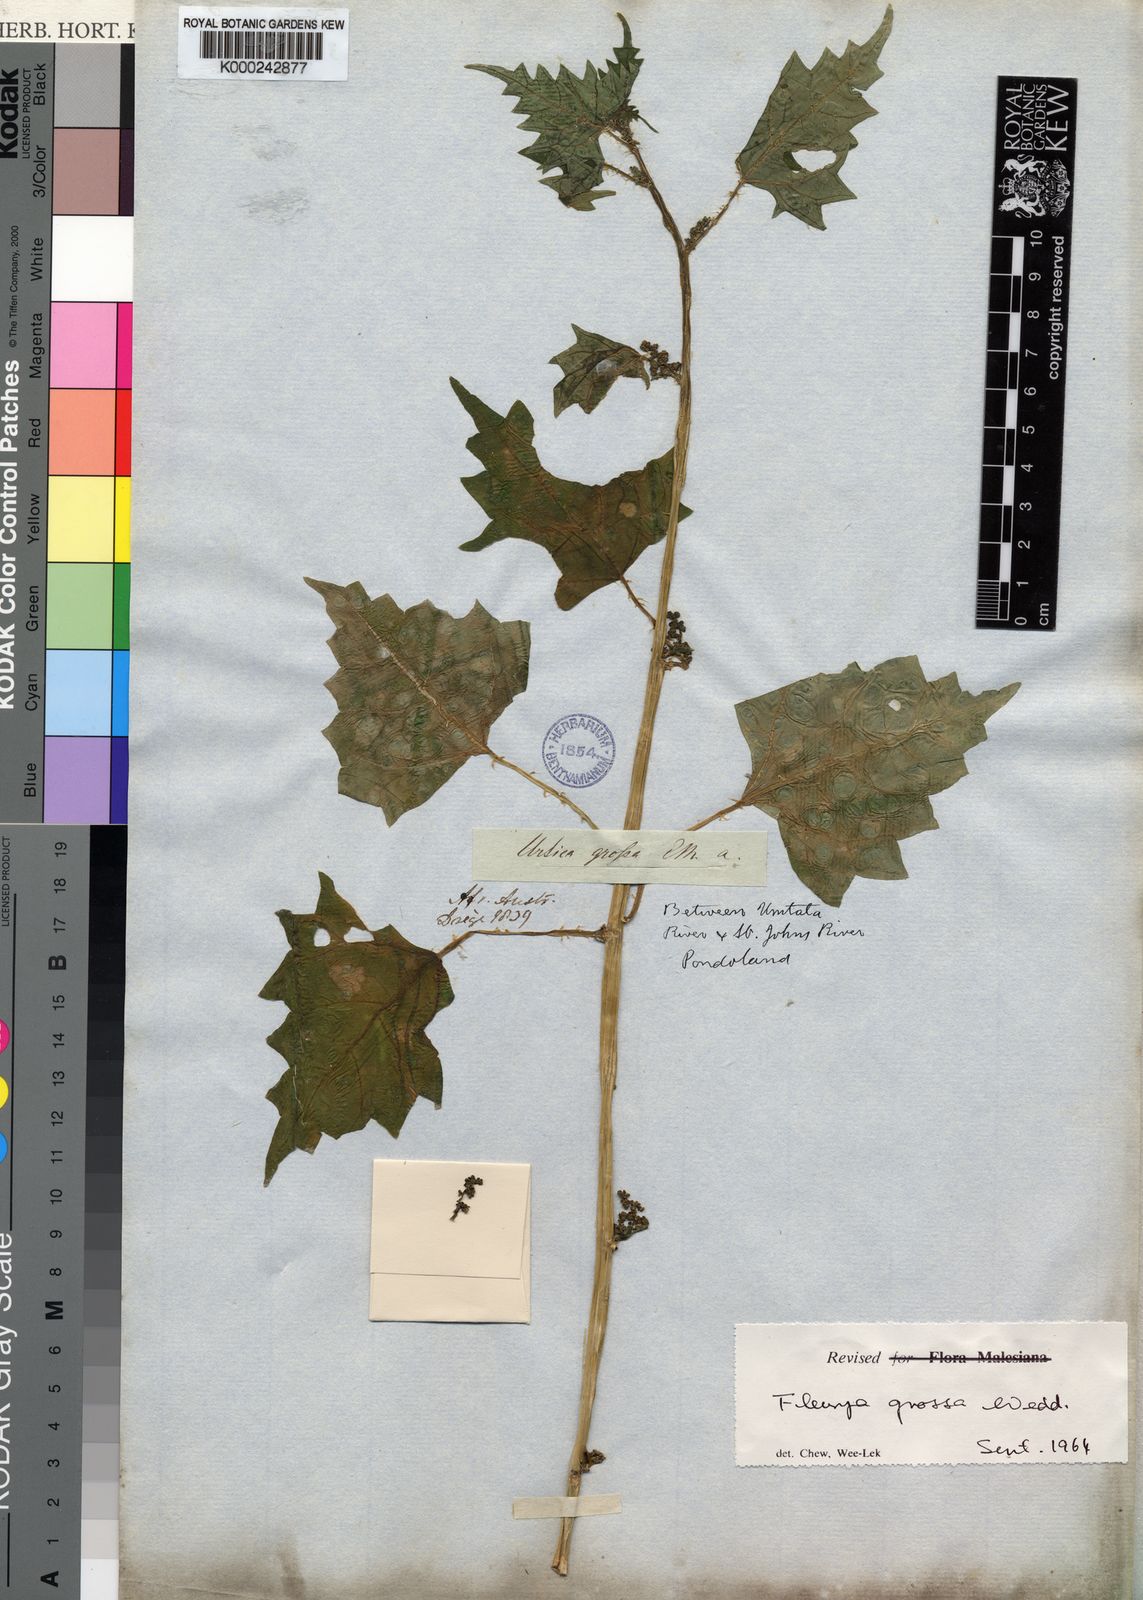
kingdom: Plantae
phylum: Tracheophyta
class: Magnoliopsida
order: Rosales
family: Urticaceae
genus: Laportea
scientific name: Laportea grossa
